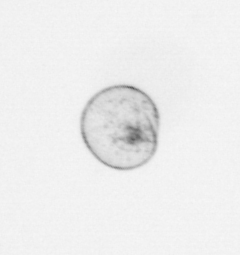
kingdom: Chromista
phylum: Myzozoa
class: Dinophyceae
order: Noctilucales
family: Noctilucaceae
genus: Noctiluca
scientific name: Noctiluca scintillans
